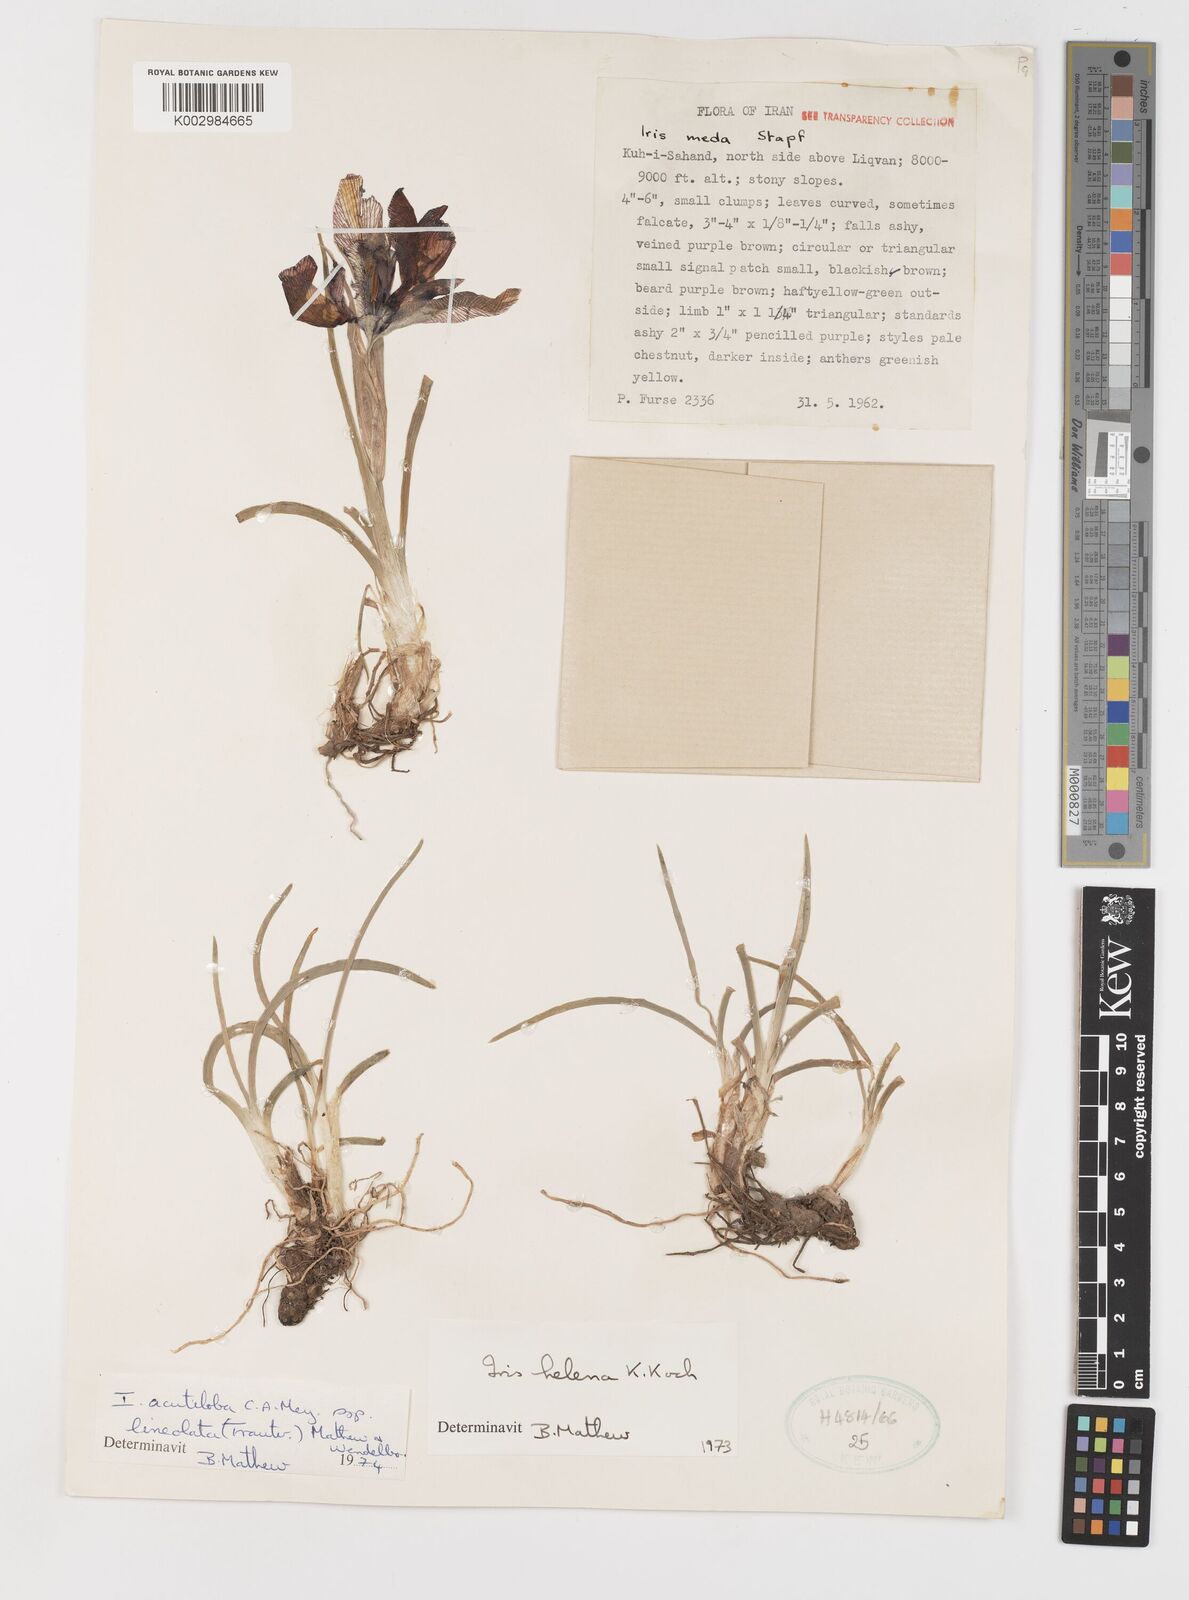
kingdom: Plantae
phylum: Tracheophyta
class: Liliopsida
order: Asparagales
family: Iridaceae
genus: Iris
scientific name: Iris acutiloba
